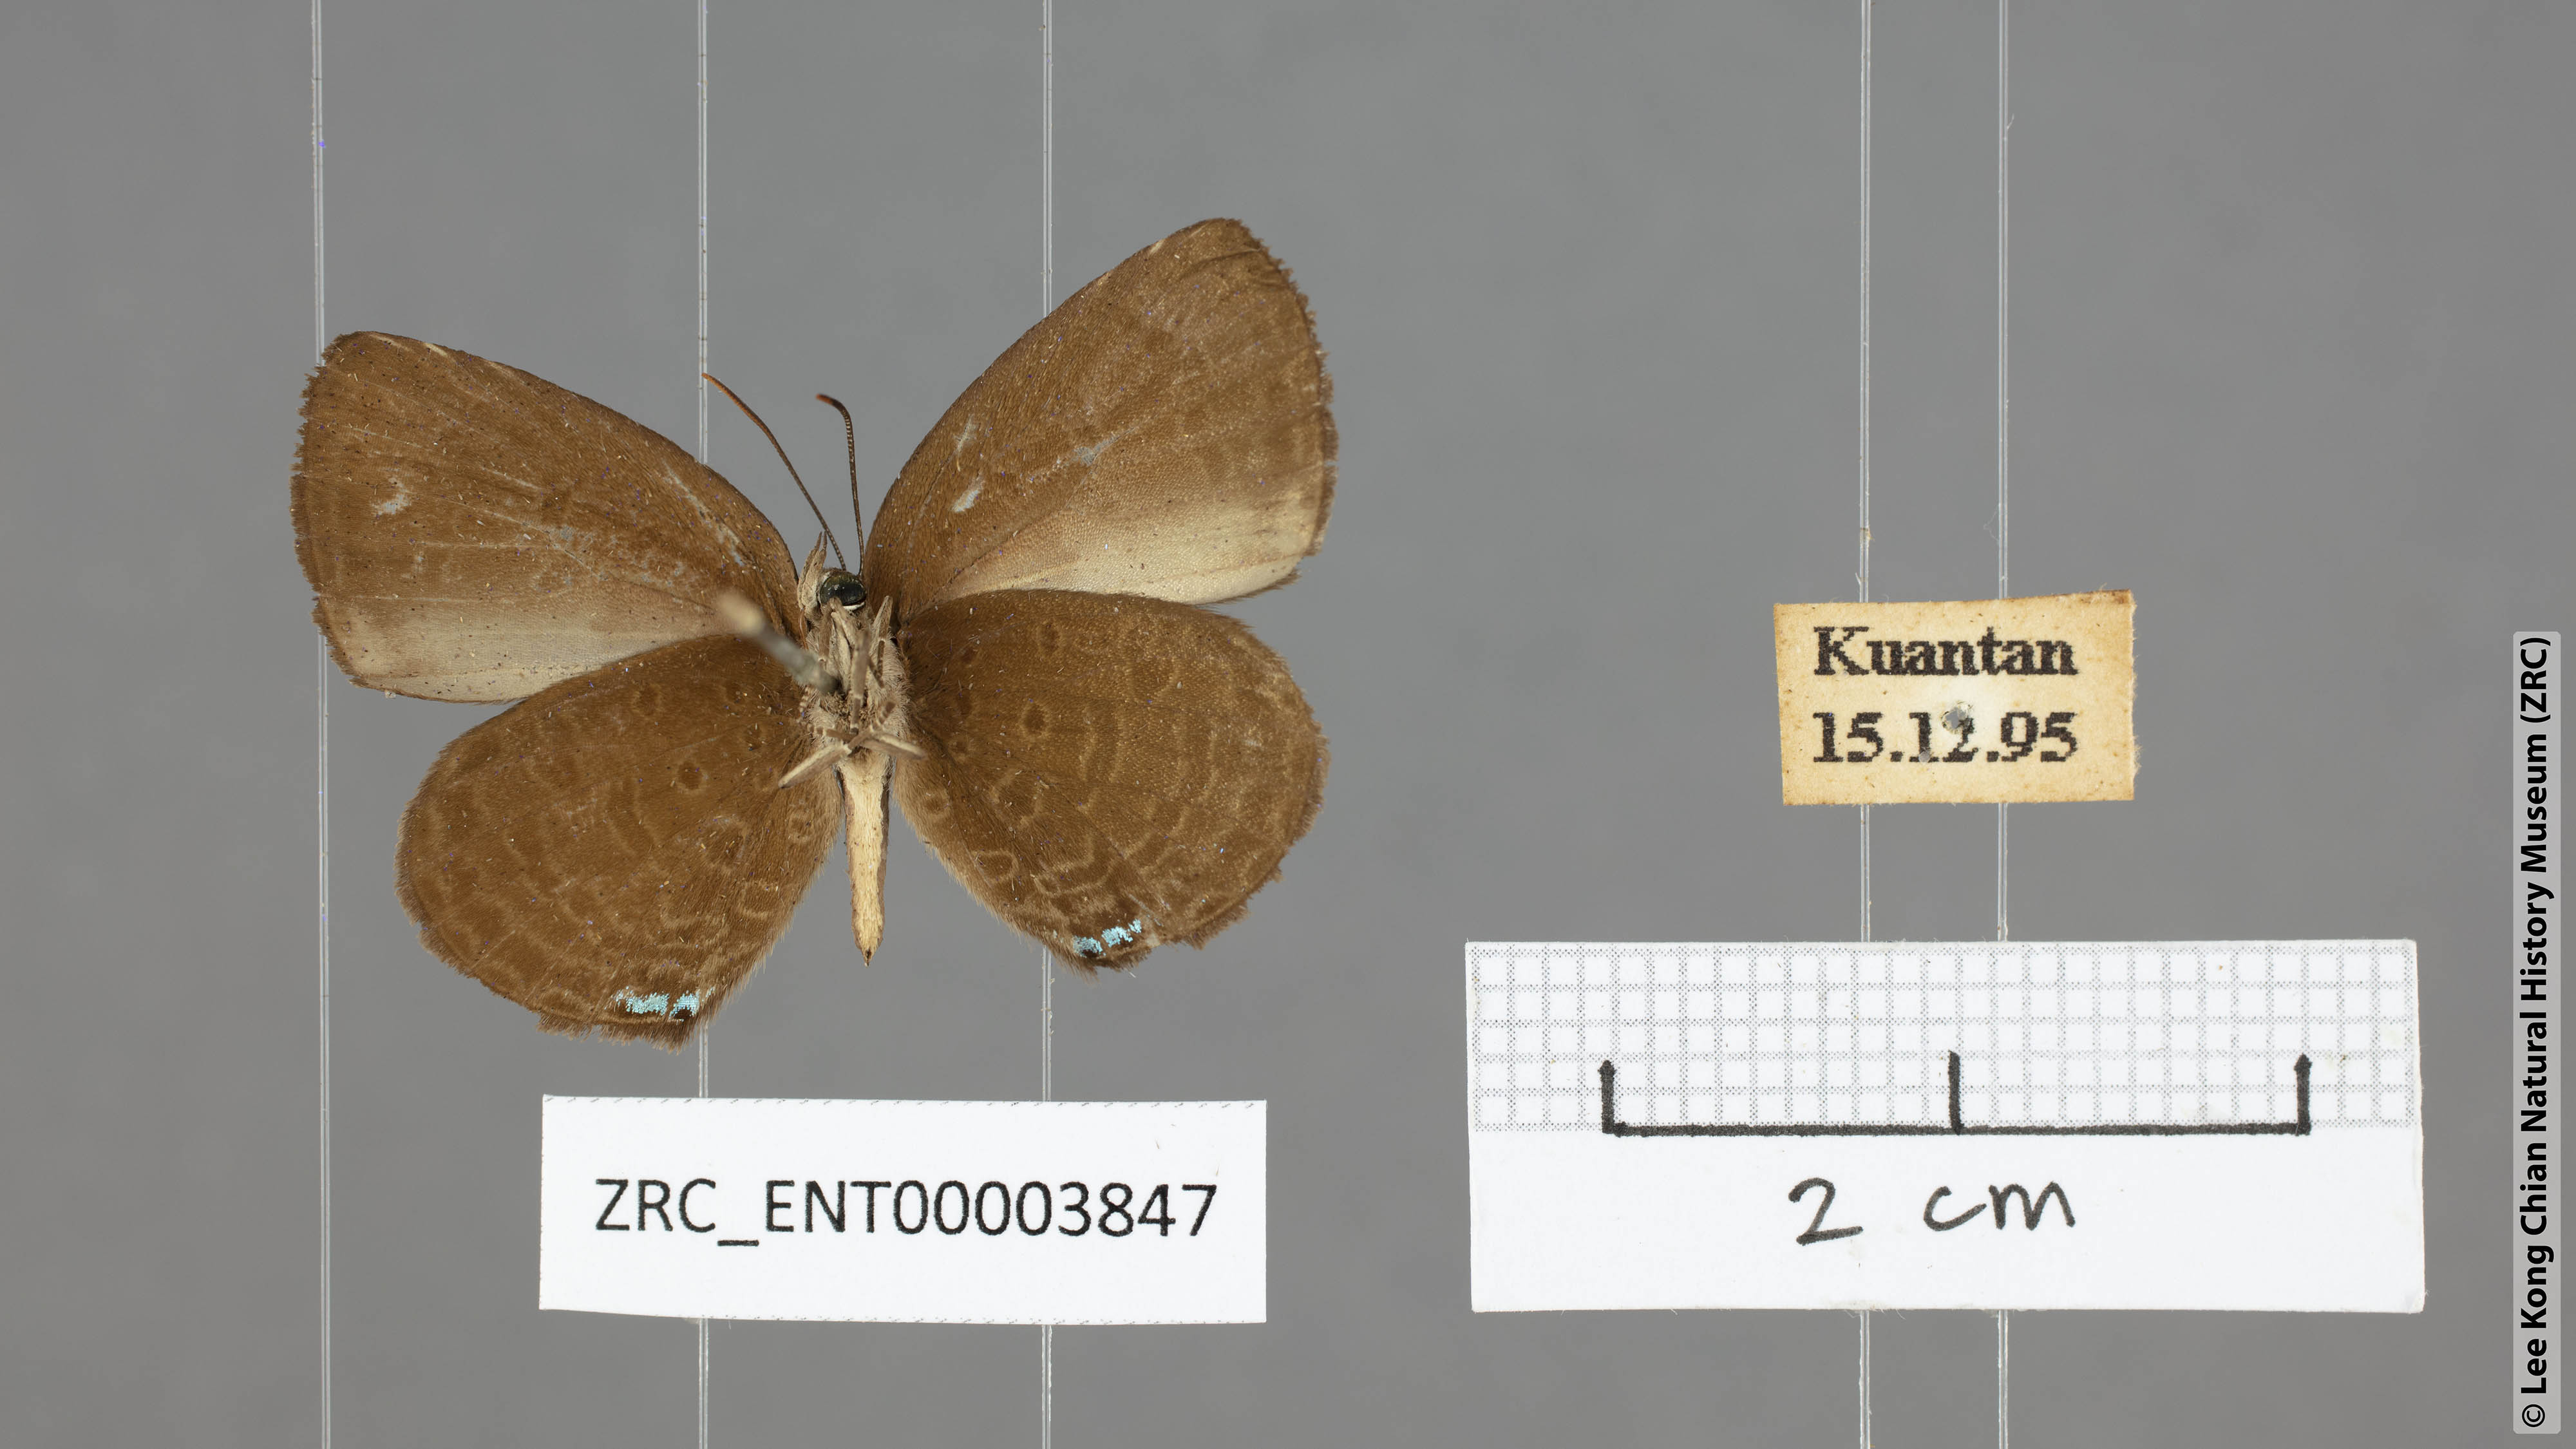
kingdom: Animalia
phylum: Arthropoda
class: Insecta
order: Lepidoptera
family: Lycaenidae
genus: Arhopala
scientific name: Arhopala antimuta
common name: Small tailless oakblue
